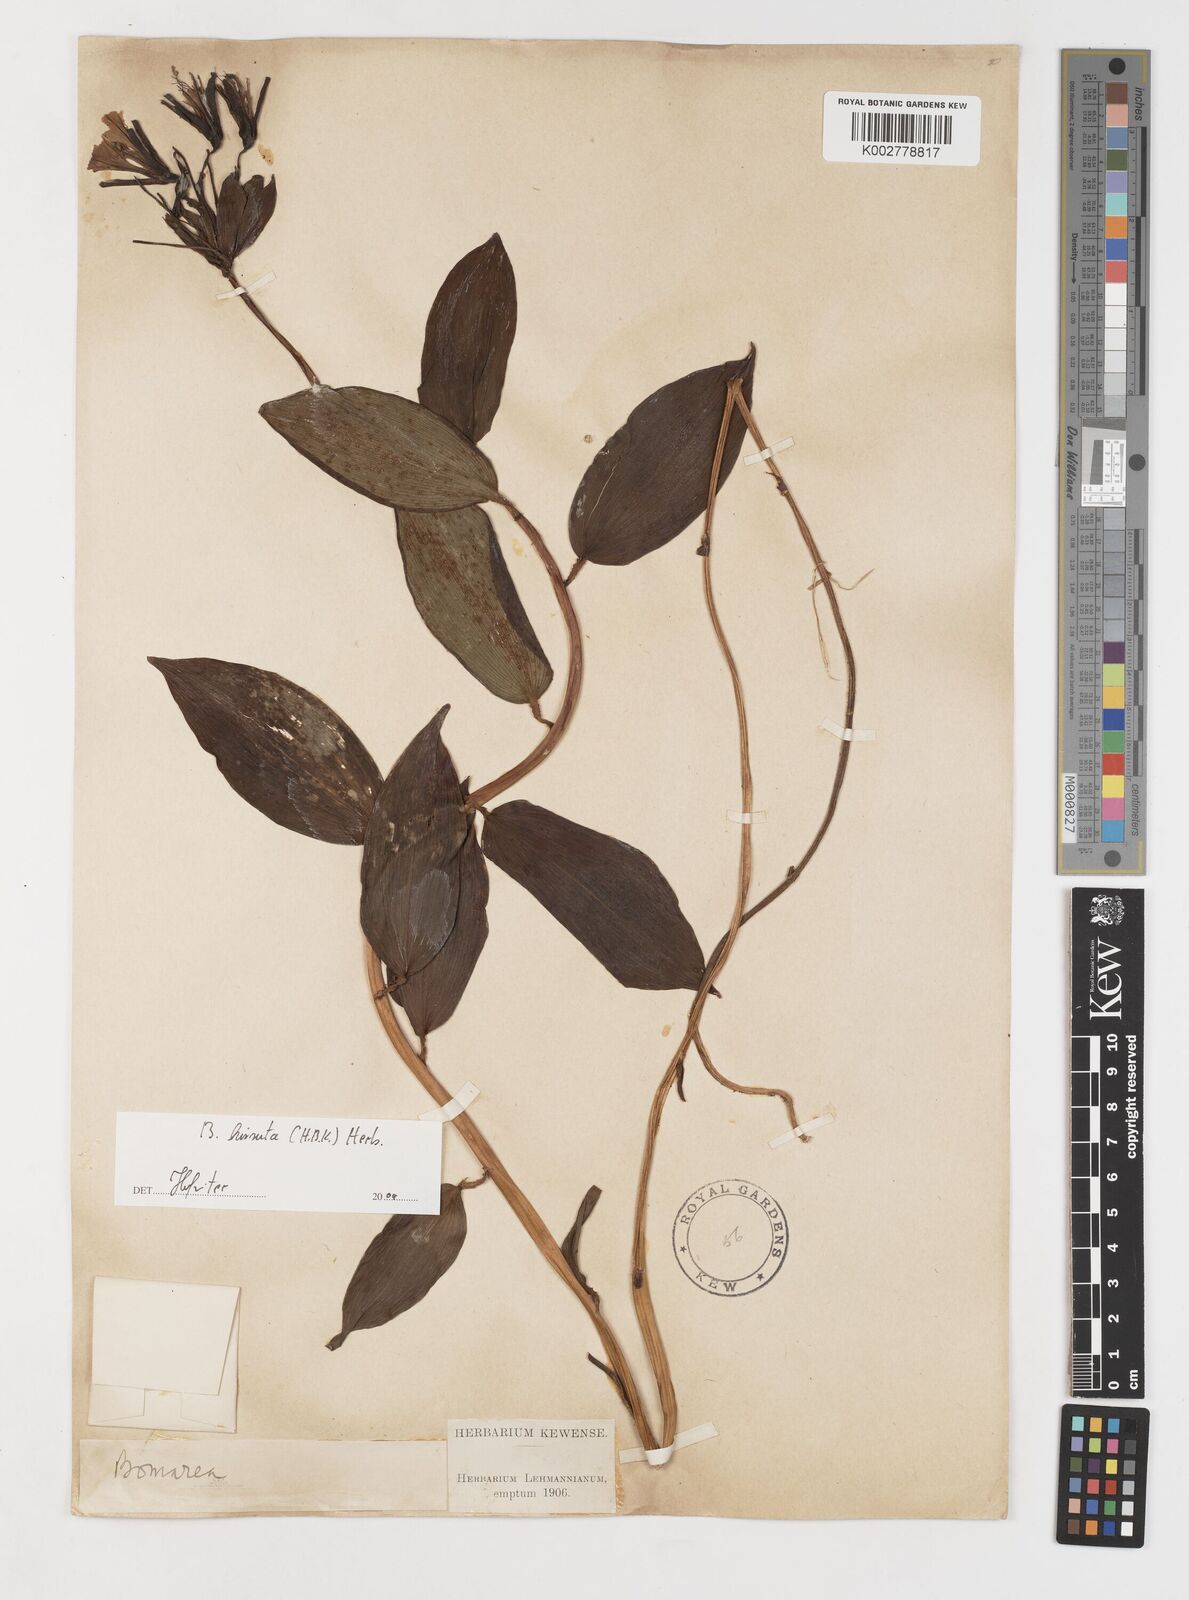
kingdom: Plantae
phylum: Tracheophyta
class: Liliopsida
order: Liliales
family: Alstroemeriaceae
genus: Bomarea
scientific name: Bomarea hirsuta
